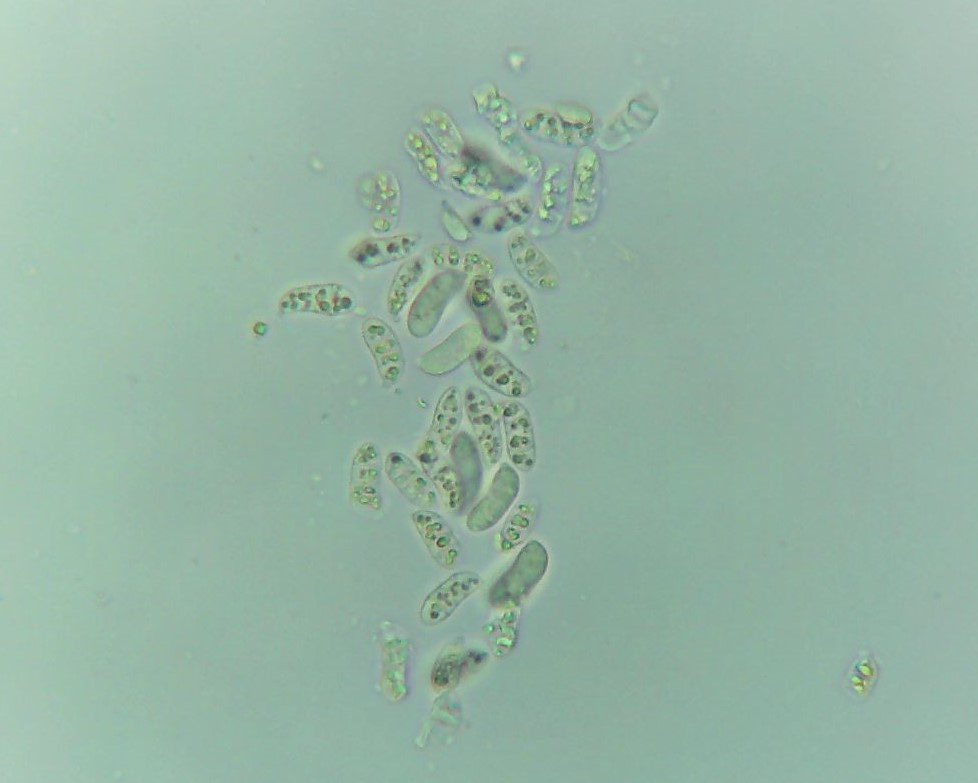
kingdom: Fungi
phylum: Basidiomycota
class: Dacrymycetes
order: Dacrymycetales
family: Dacrymycetaceae
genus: Dacrymyces
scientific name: Dacrymyces lacrymalis
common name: rynket tåresvamp
